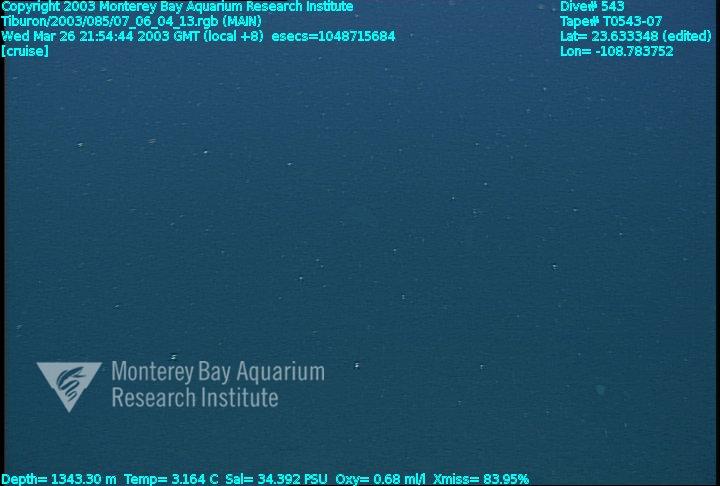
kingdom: Animalia
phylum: Porifera
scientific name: Porifera
